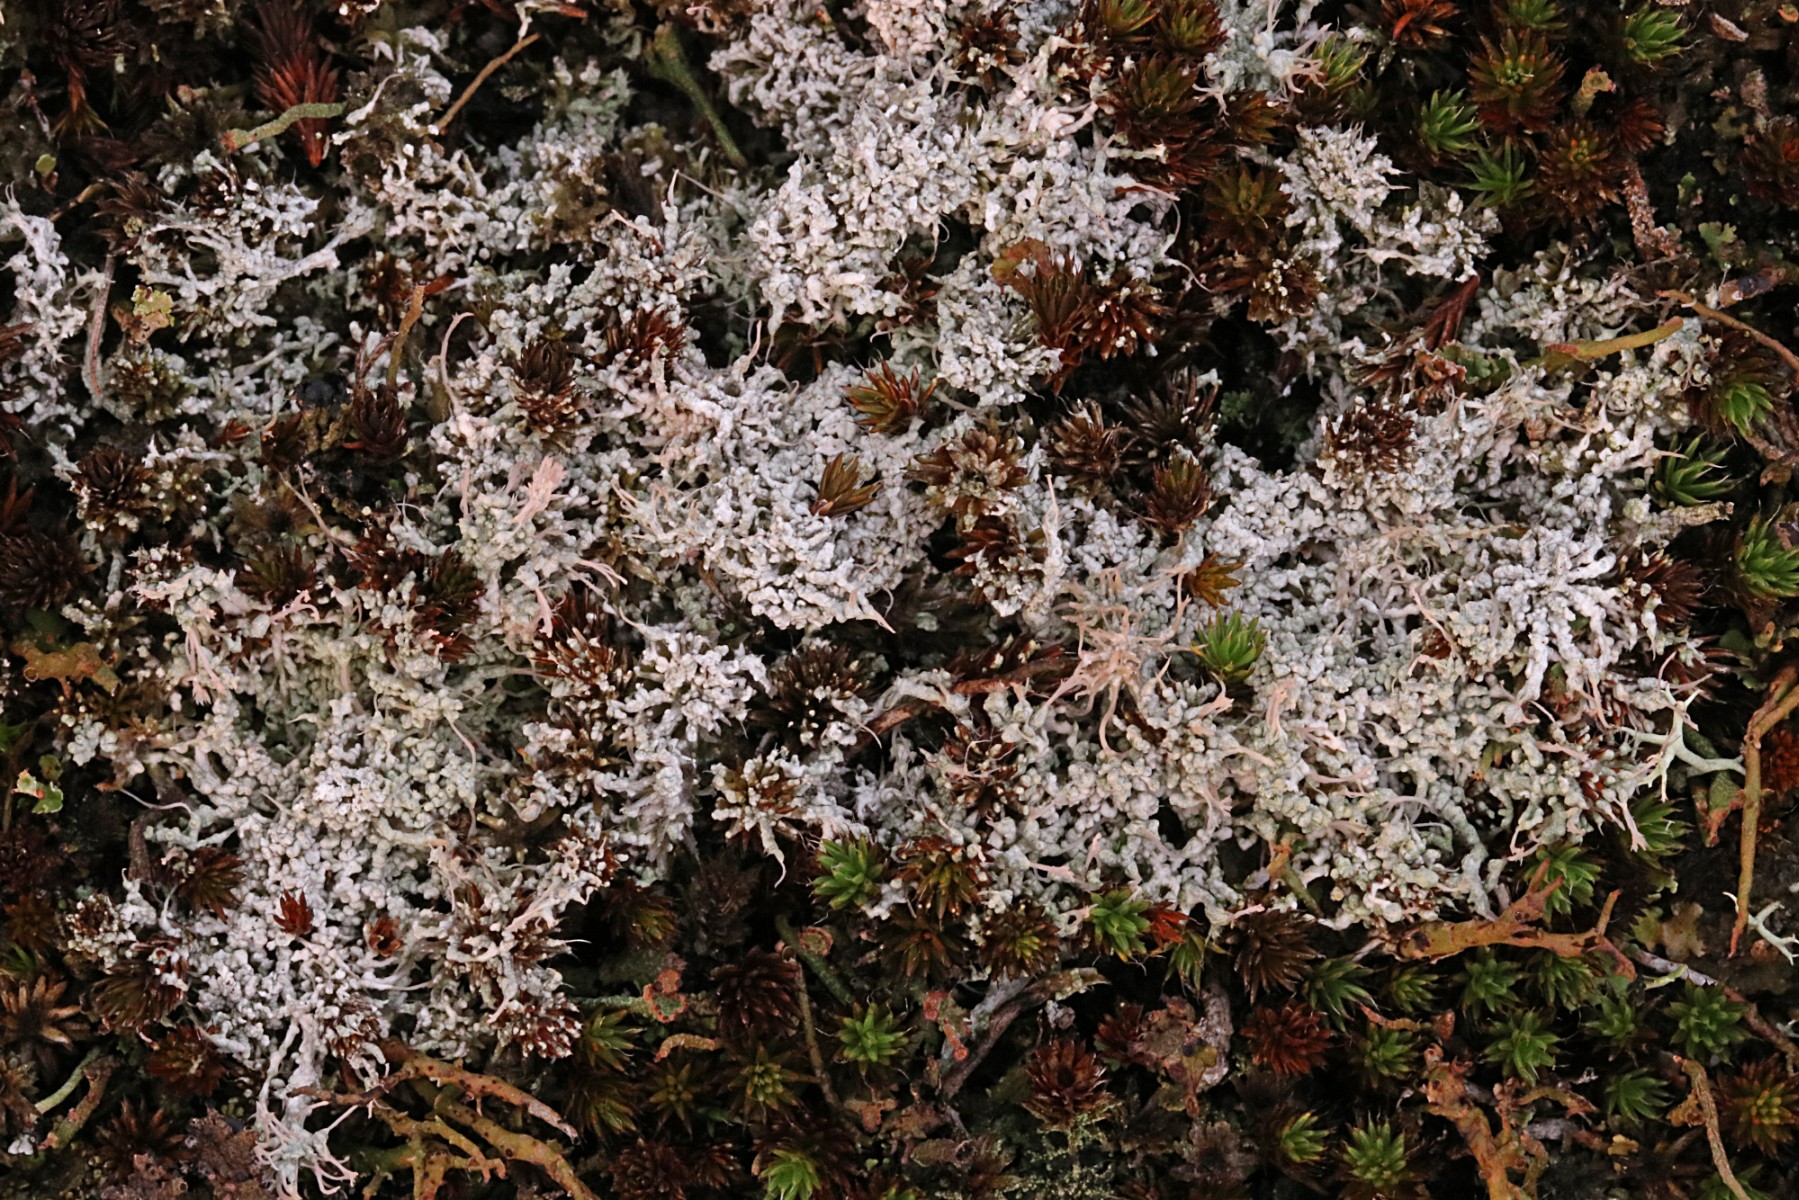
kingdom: Fungi
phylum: Ascomycota
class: Lecanoromycetes
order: Pertusariales
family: Ochrolechiaceae
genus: Ochrolechia
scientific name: Ochrolechia frigida
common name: fjeld-blegskivelav
